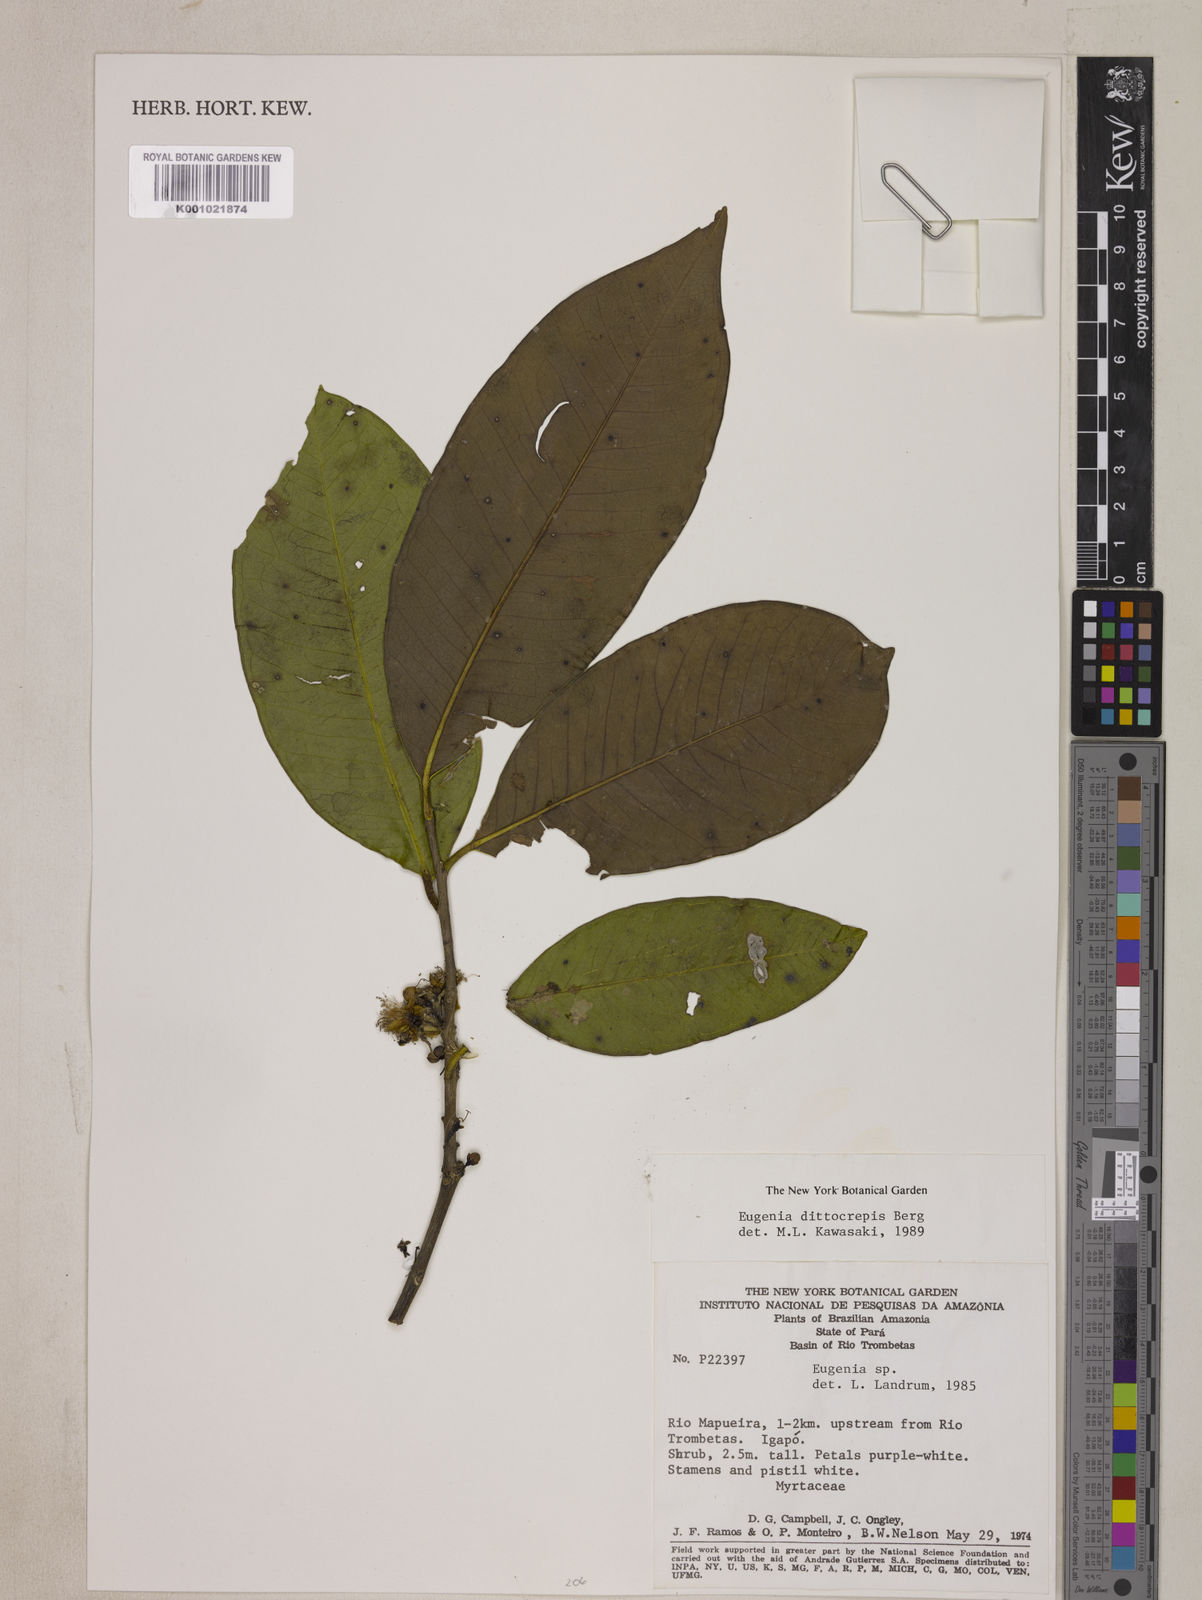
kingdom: Plantae
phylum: Tracheophyta
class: Magnoliopsida
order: Myrtales
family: Myrtaceae
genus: Eugenia
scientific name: Eugenia dittocrepis
